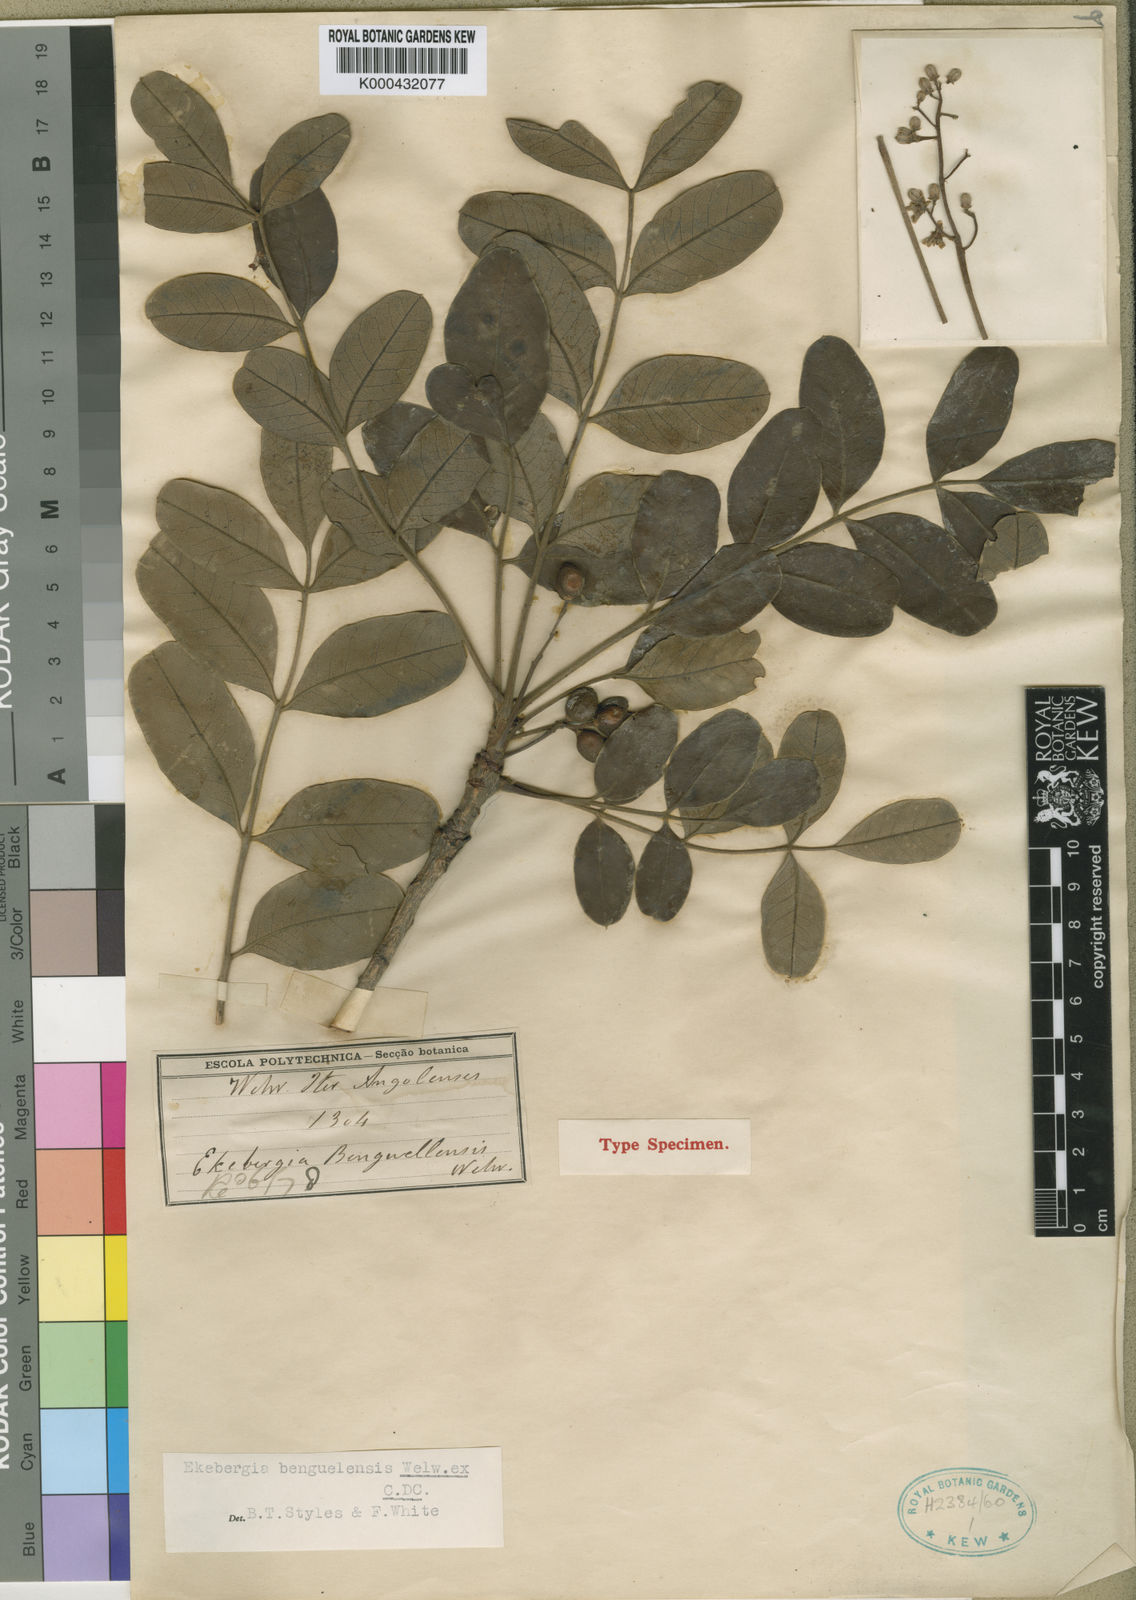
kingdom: Plantae
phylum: Tracheophyta
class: Magnoliopsida
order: Sapindales
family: Meliaceae
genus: Ekebergia
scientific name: Ekebergia benguelensis
